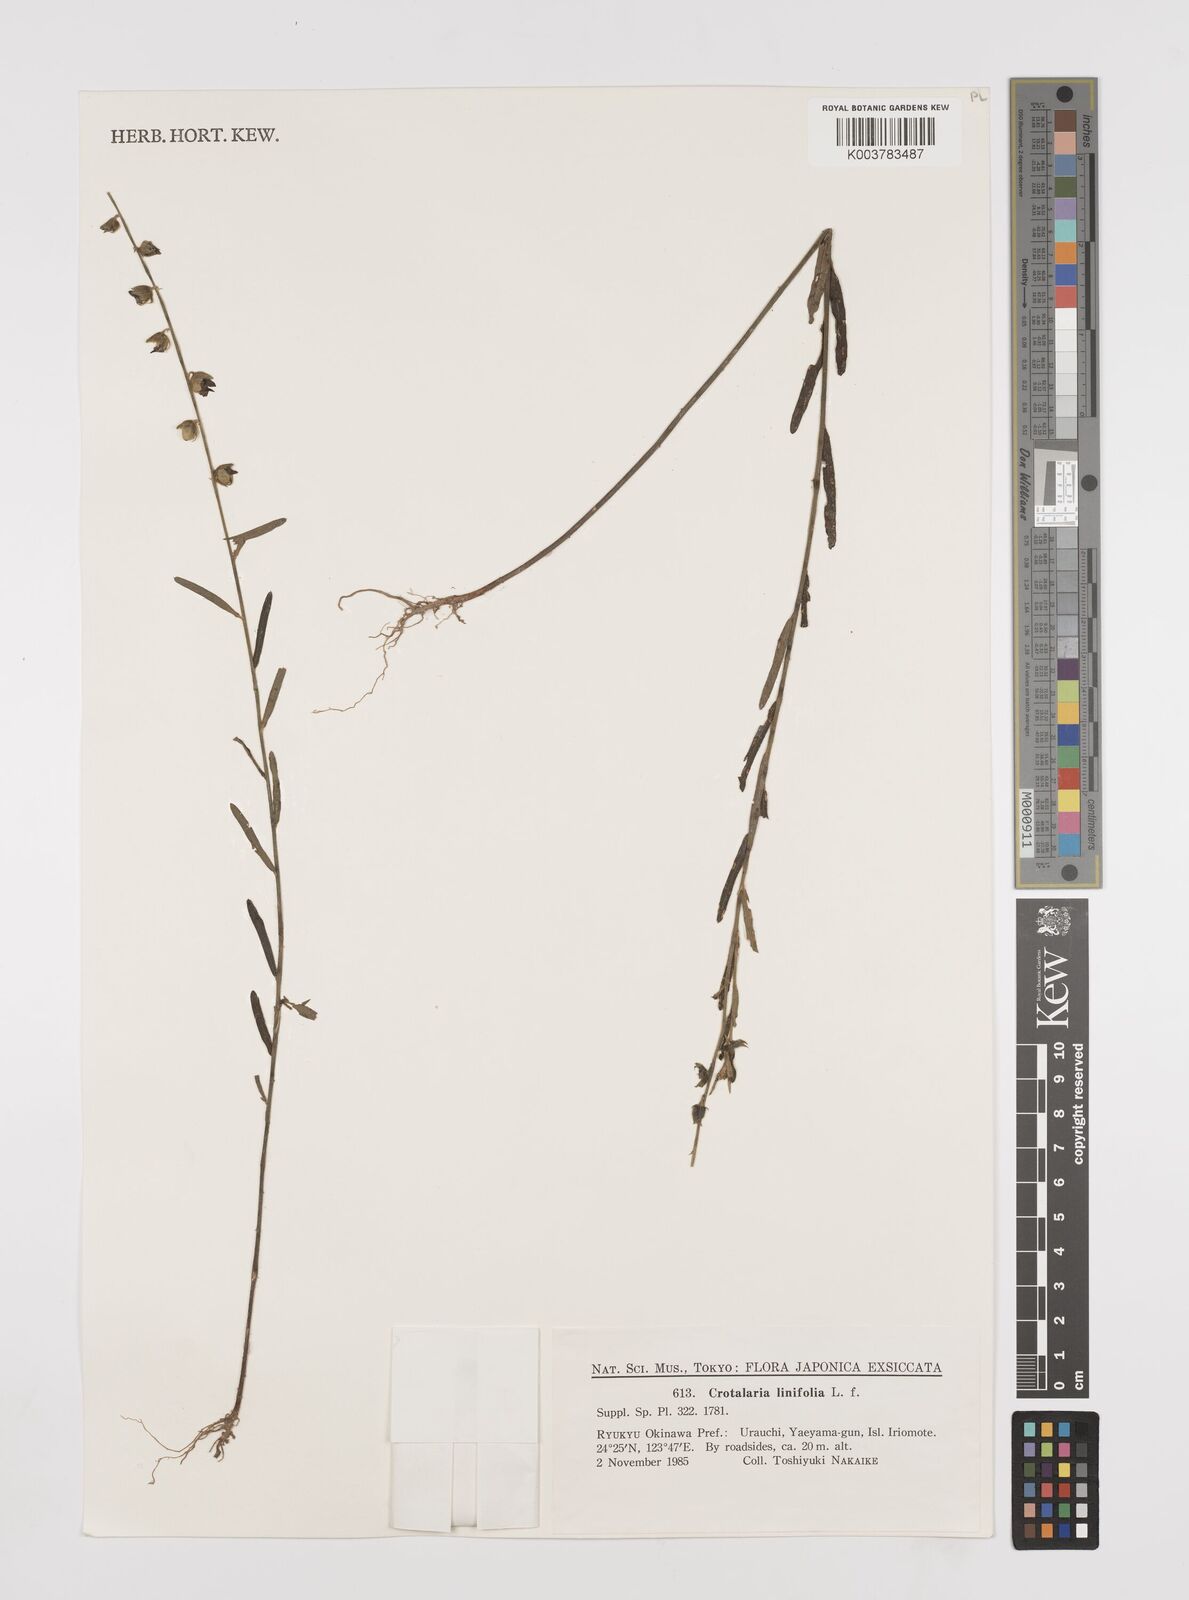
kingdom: Plantae
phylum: Tracheophyta
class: Magnoliopsida
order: Fabales
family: Fabaceae
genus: Crotalaria
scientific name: Crotalaria linifolia
